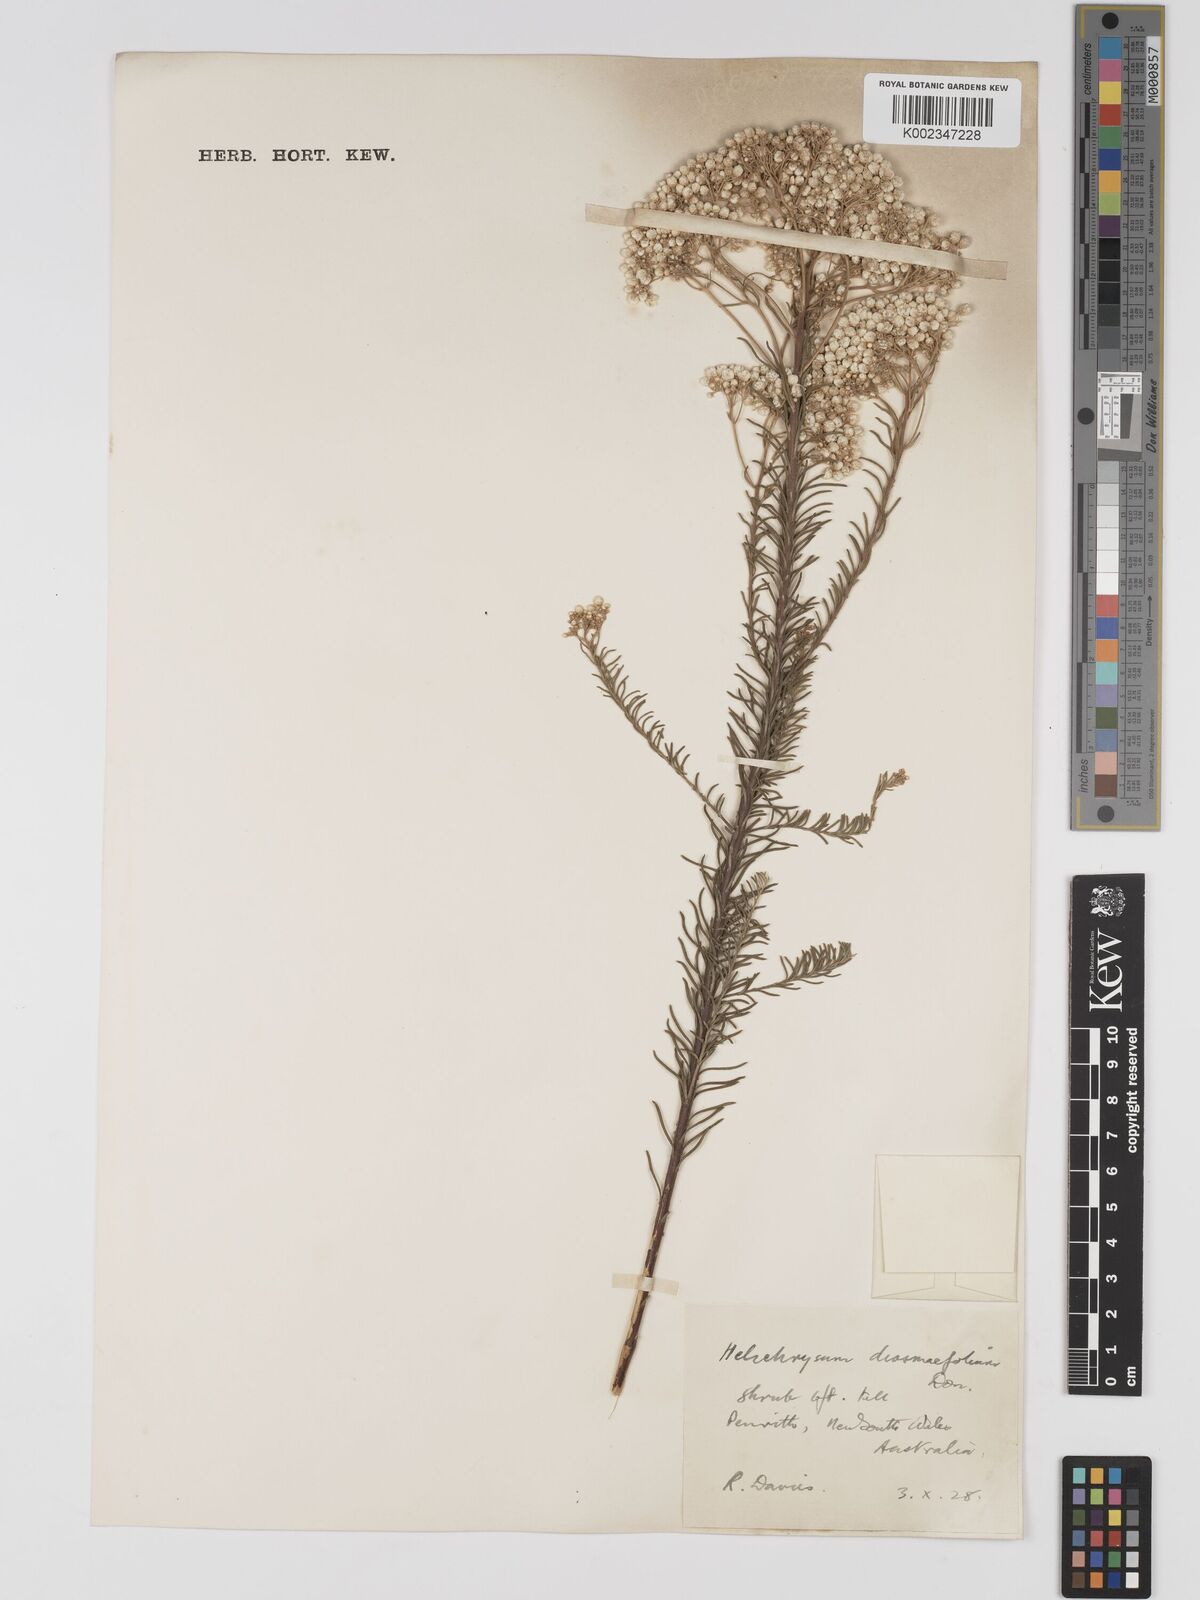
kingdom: Plantae
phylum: Tracheophyta
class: Magnoliopsida
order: Asterales
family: Asteraceae
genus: Ozothamnus
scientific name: Ozothamnus diosmifolius
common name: White-dogwood
